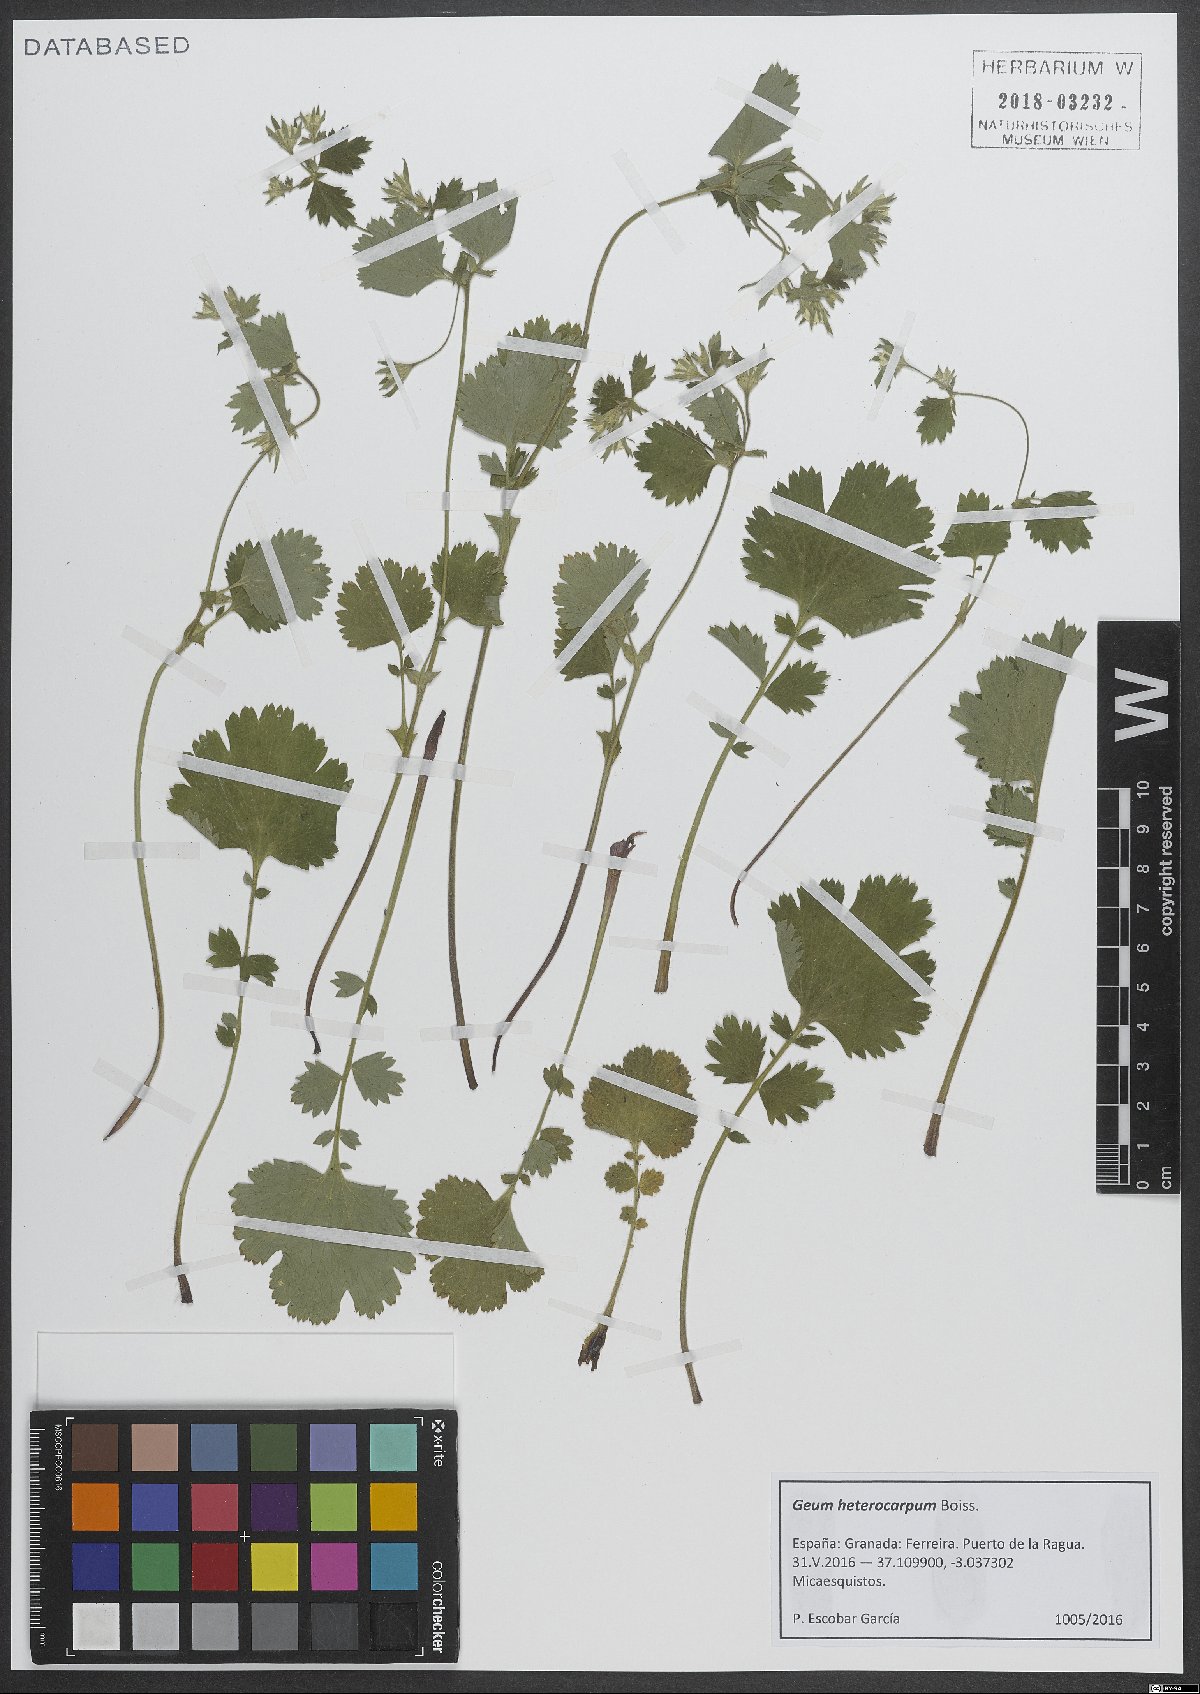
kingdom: Plantae
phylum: Tracheophyta
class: Magnoliopsida
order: Rosales
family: Rosaceae
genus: Geum
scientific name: Geum heterocarpum
